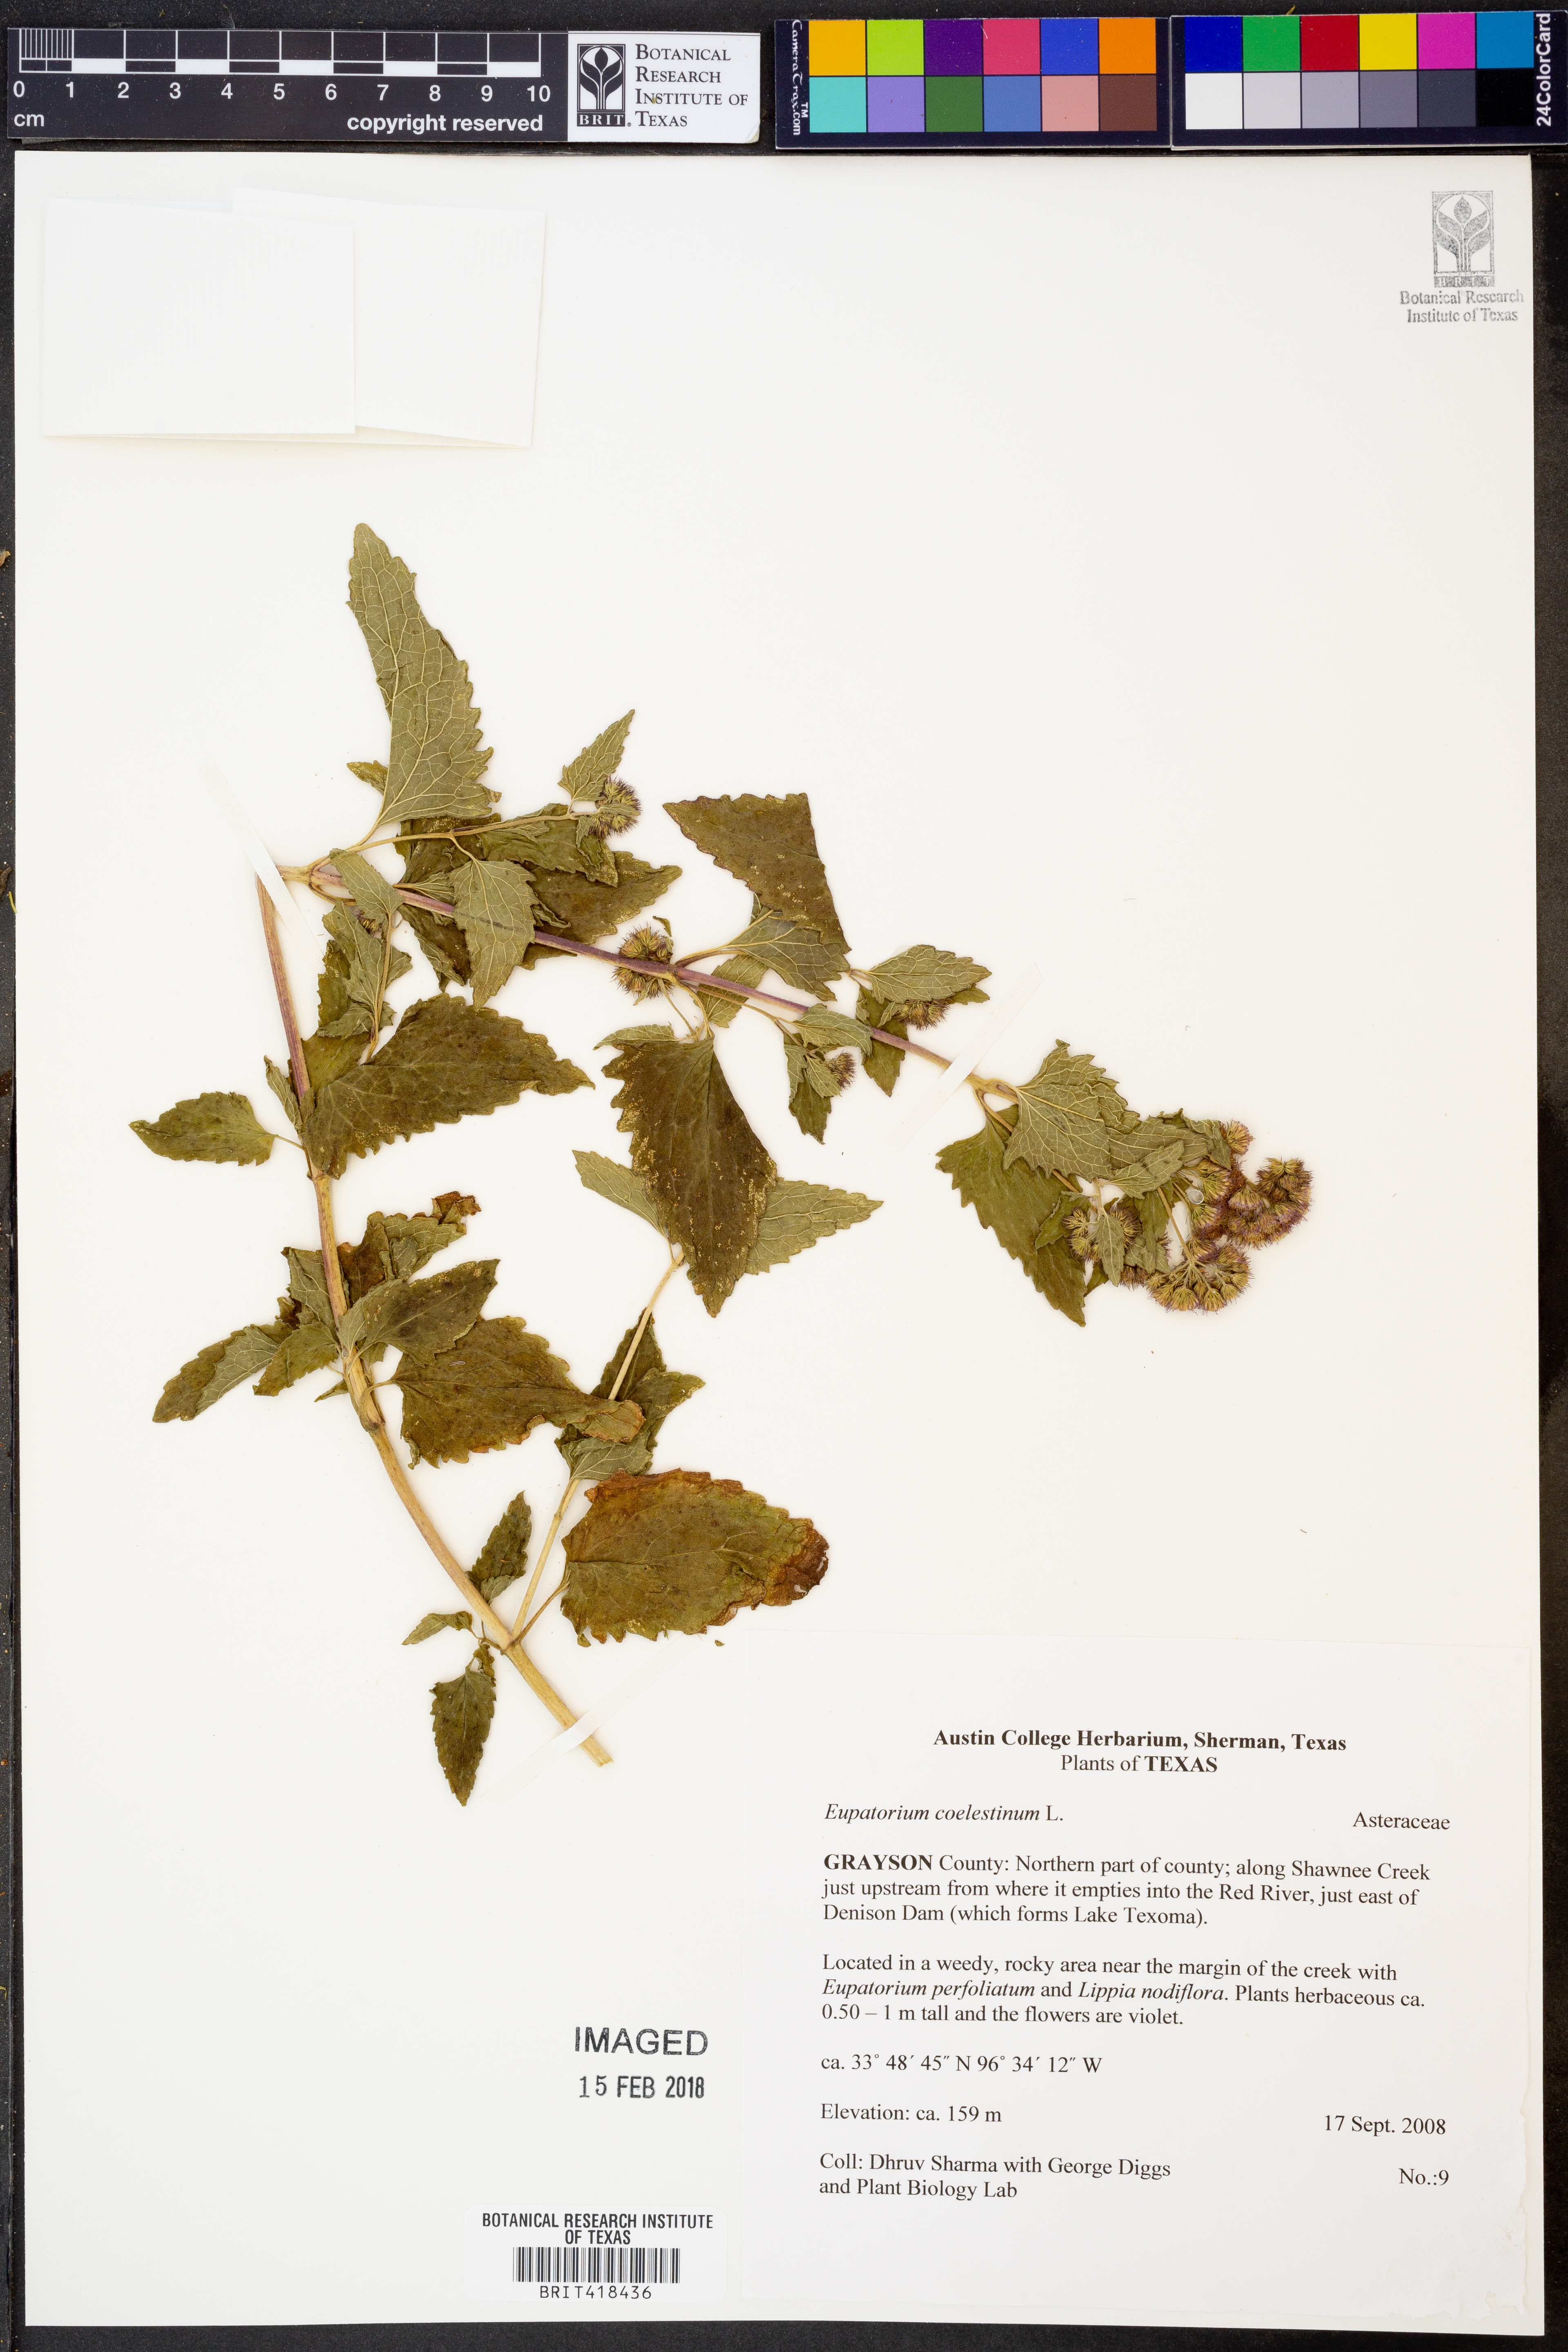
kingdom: Plantae
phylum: Tracheophyta
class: Magnoliopsida
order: Asterales
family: Asteraceae
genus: Conoclinium
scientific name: Conoclinium coelestinum
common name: Blue mistflower
